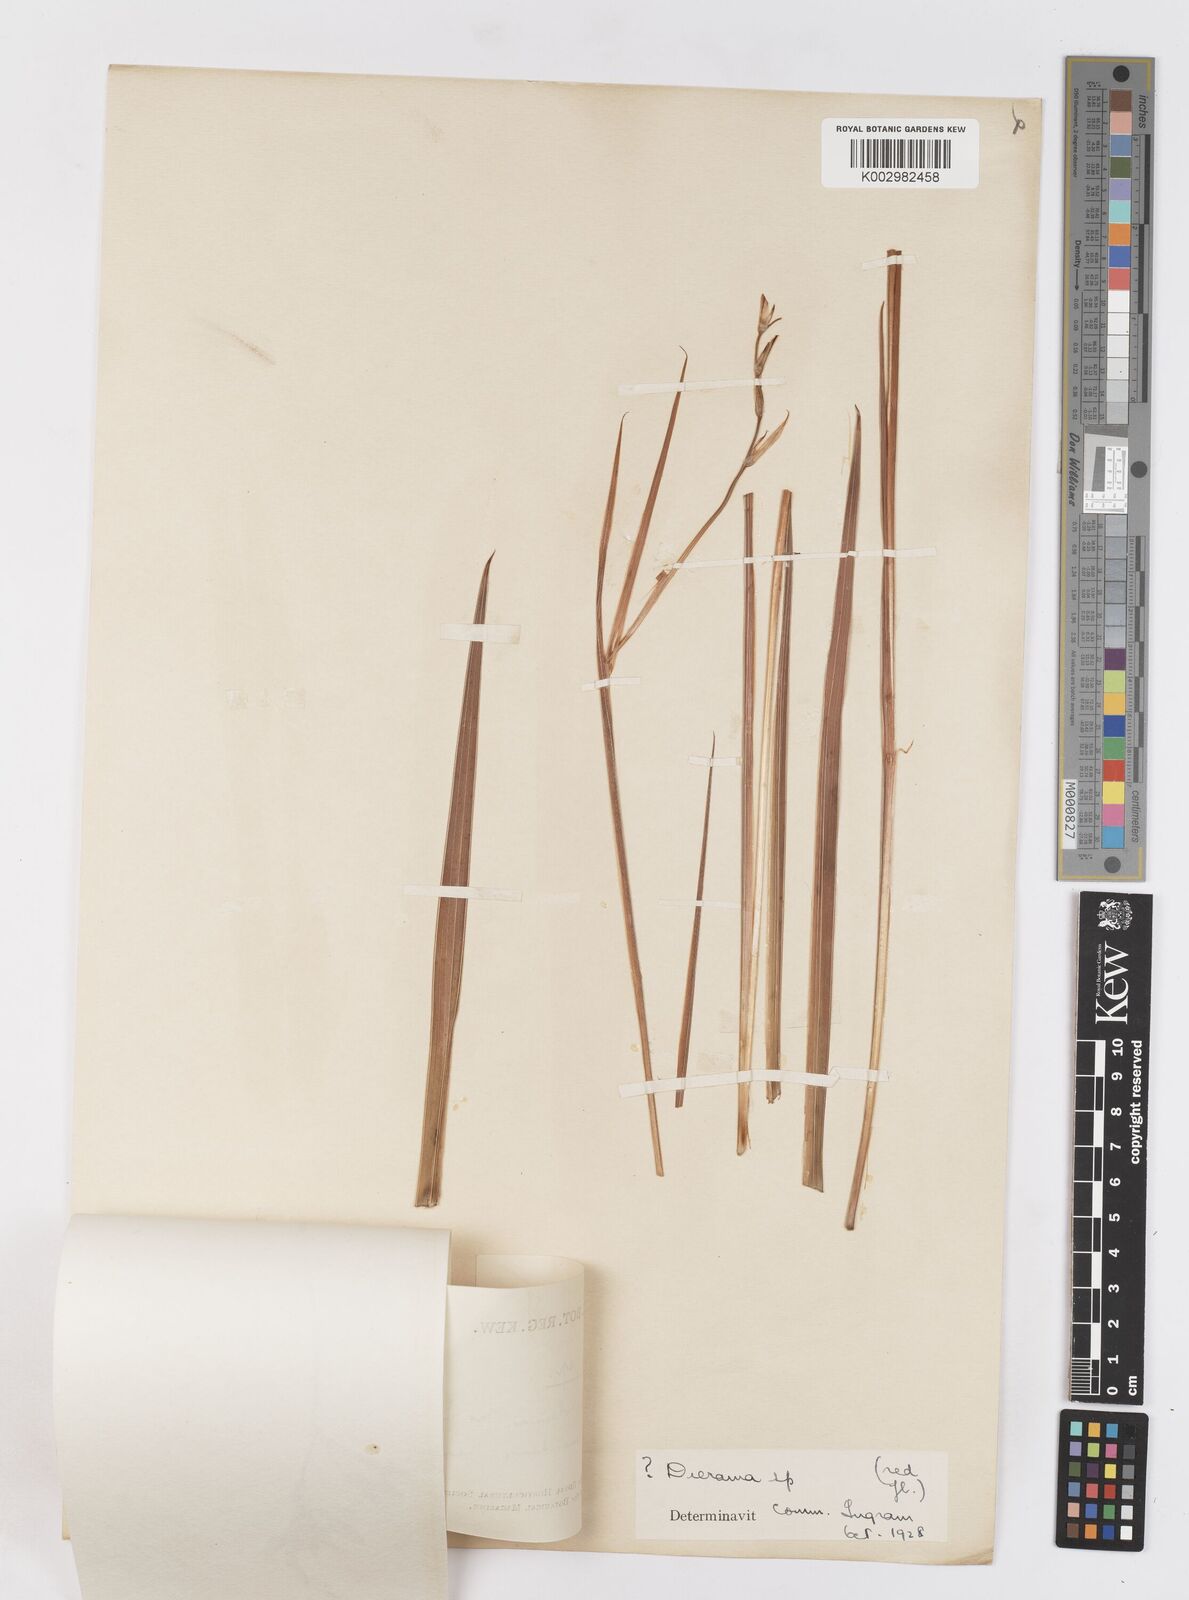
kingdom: Plantae
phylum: Tracheophyta
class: Liliopsida
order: Asparagales
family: Iridaceae
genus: Tritonia
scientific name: Tritonia
